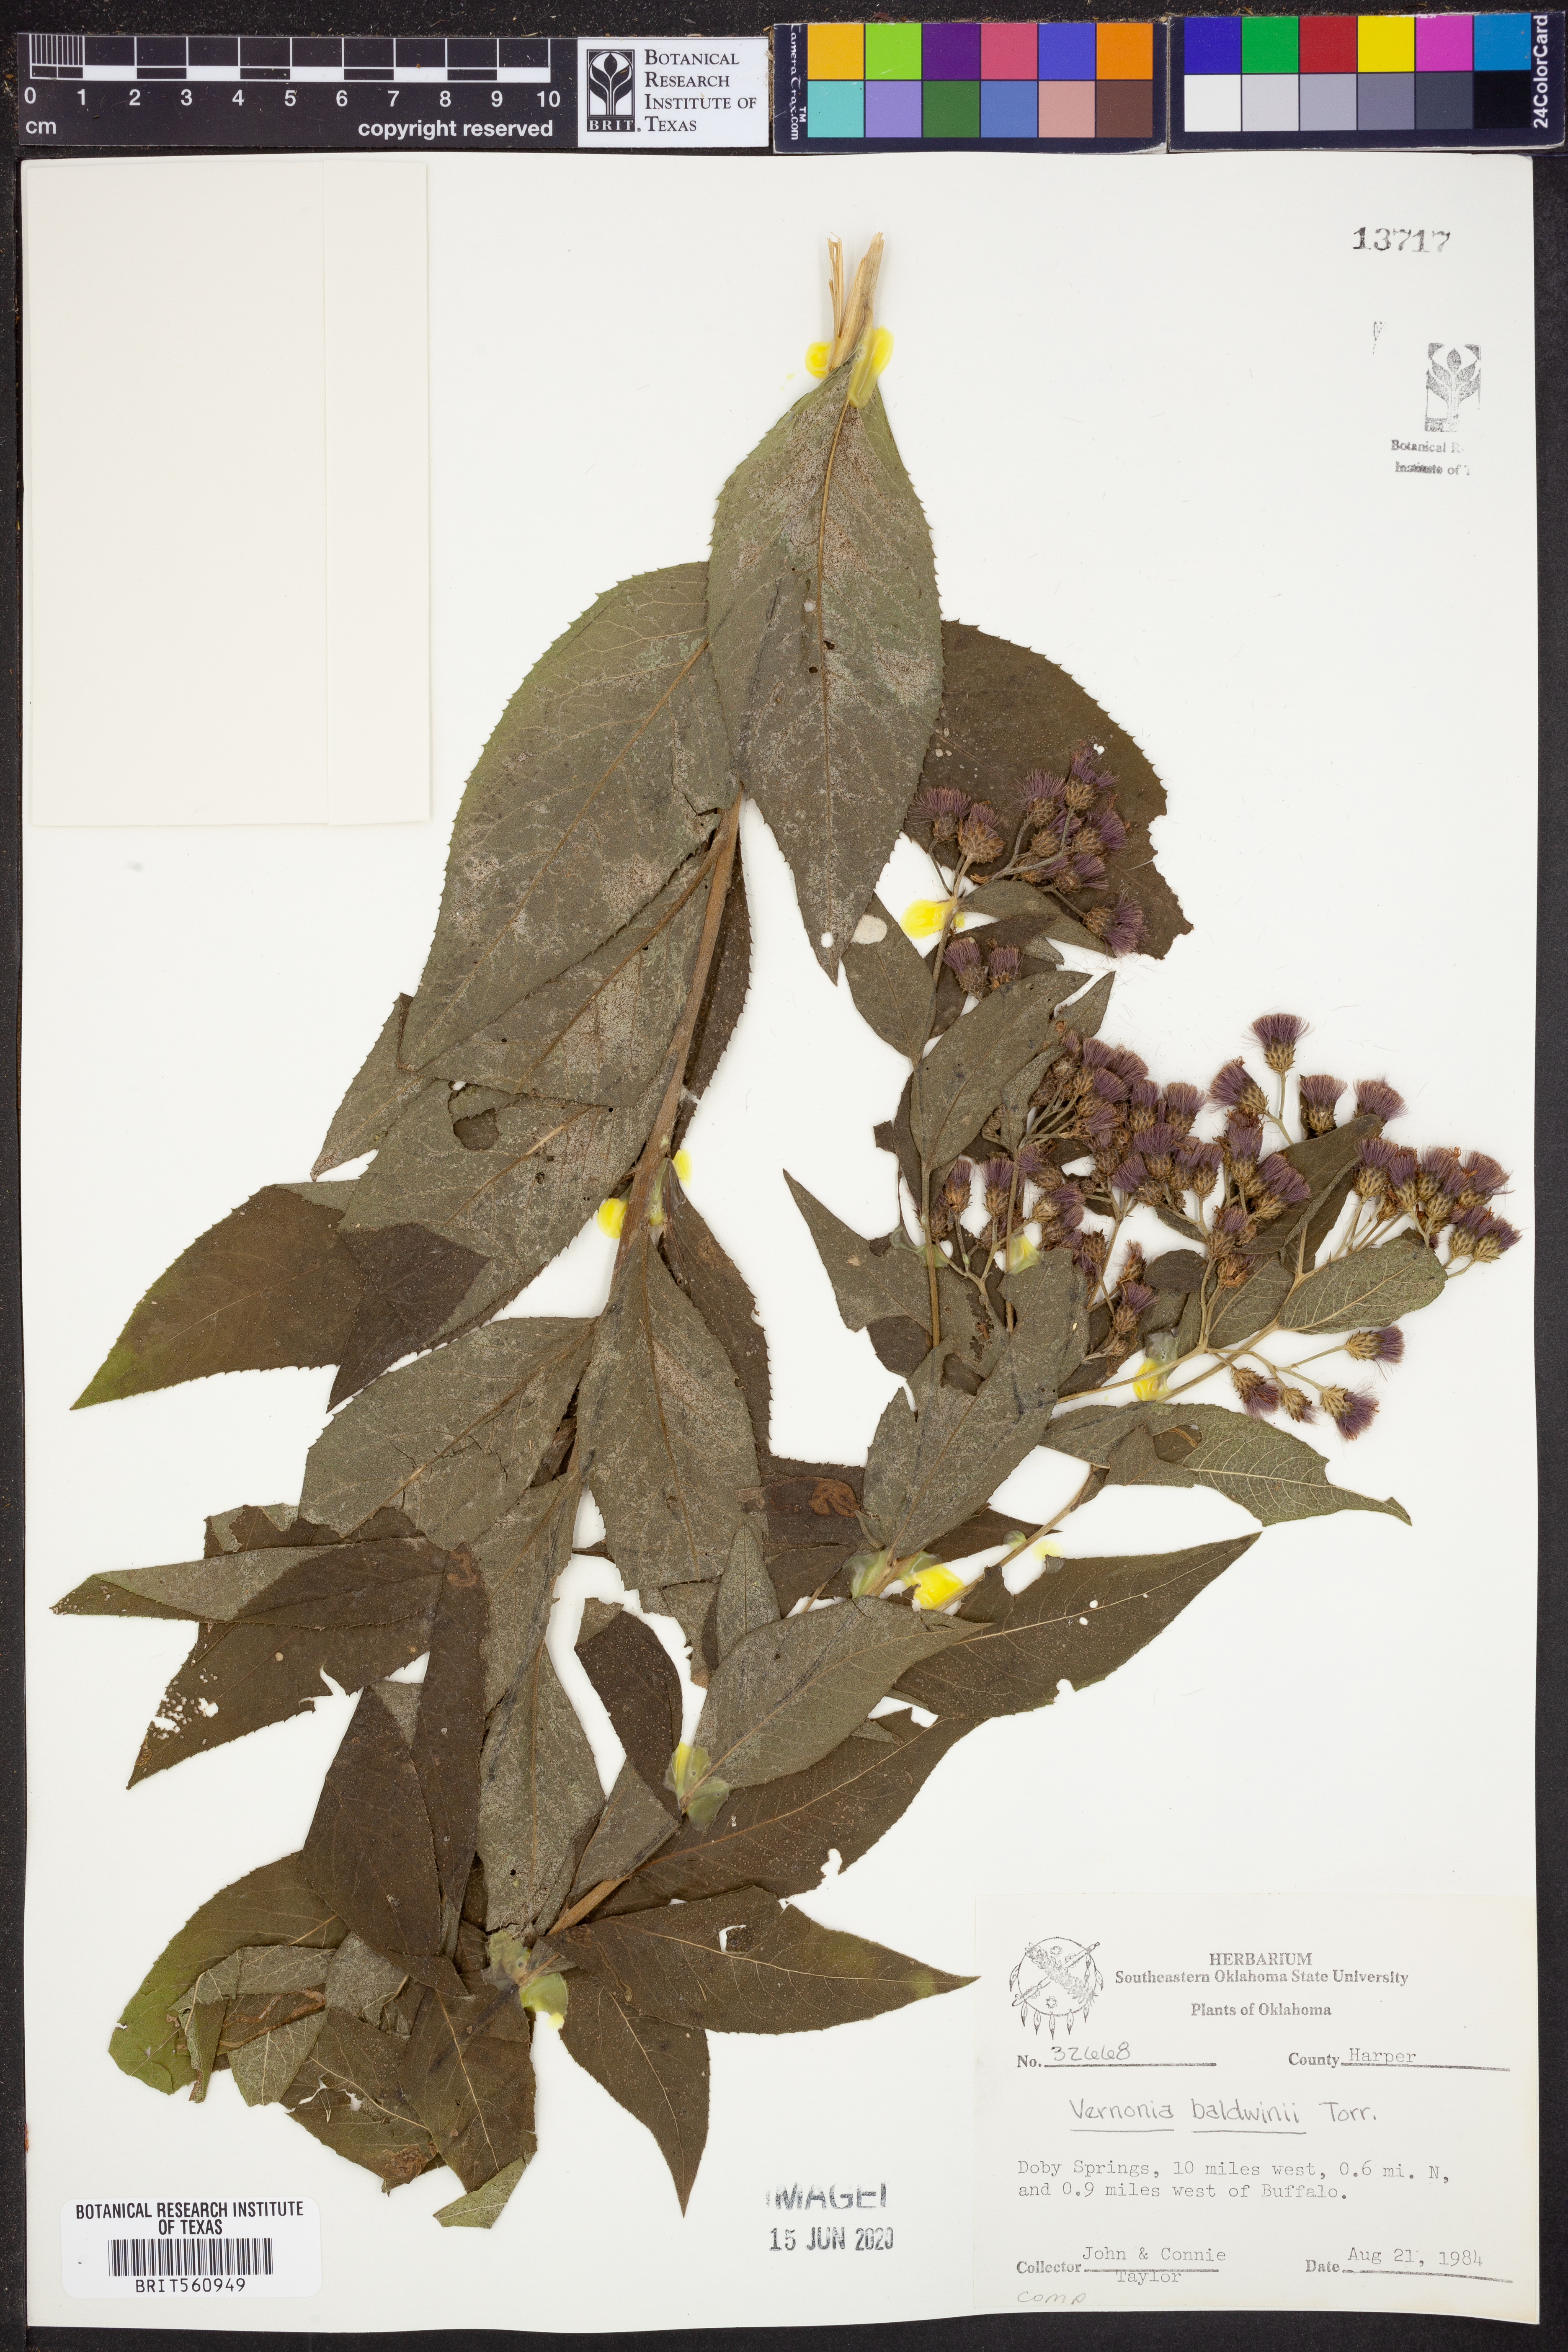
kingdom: Plantae
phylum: Tracheophyta
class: Magnoliopsida
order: Asterales
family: Asteraceae
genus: Vernonia
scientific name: Vernonia baldwinii
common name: Western ironweed
